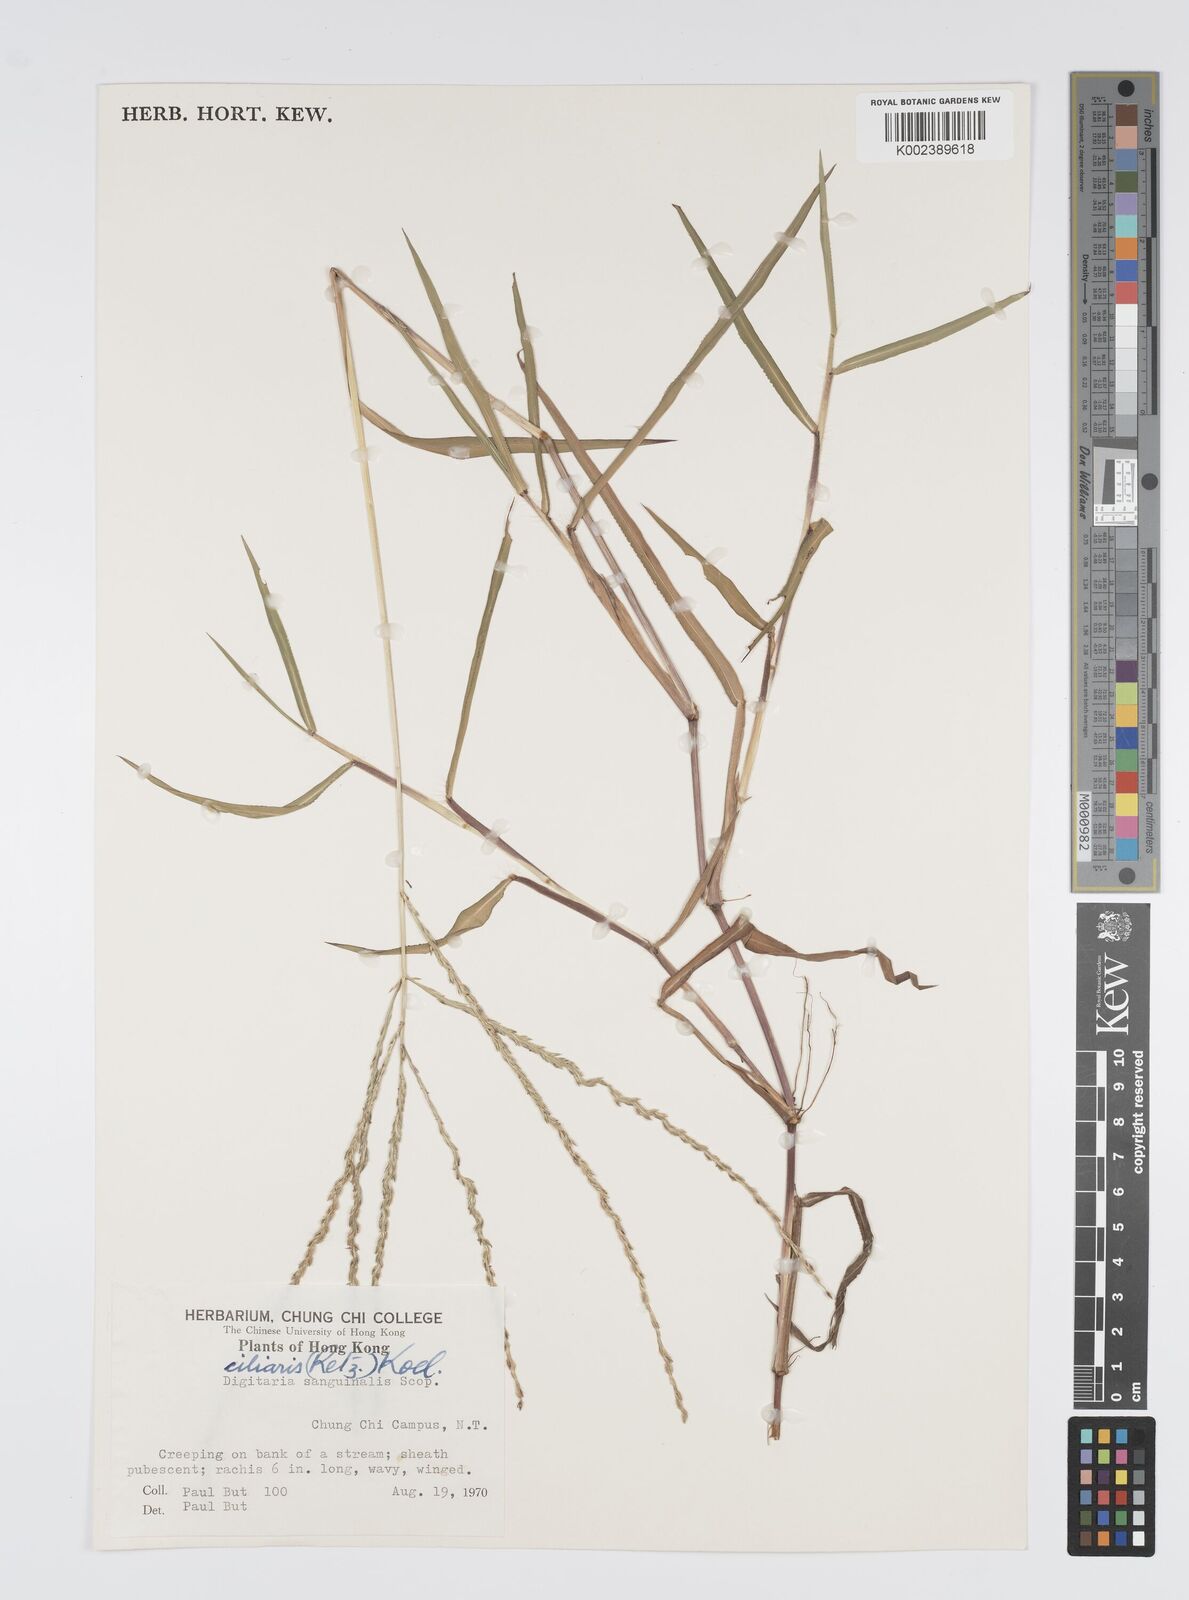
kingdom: Plantae
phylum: Tracheophyta
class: Liliopsida
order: Poales
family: Poaceae
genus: Digitaria
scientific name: Digitaria ciliaris
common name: Tropical finger-grass
